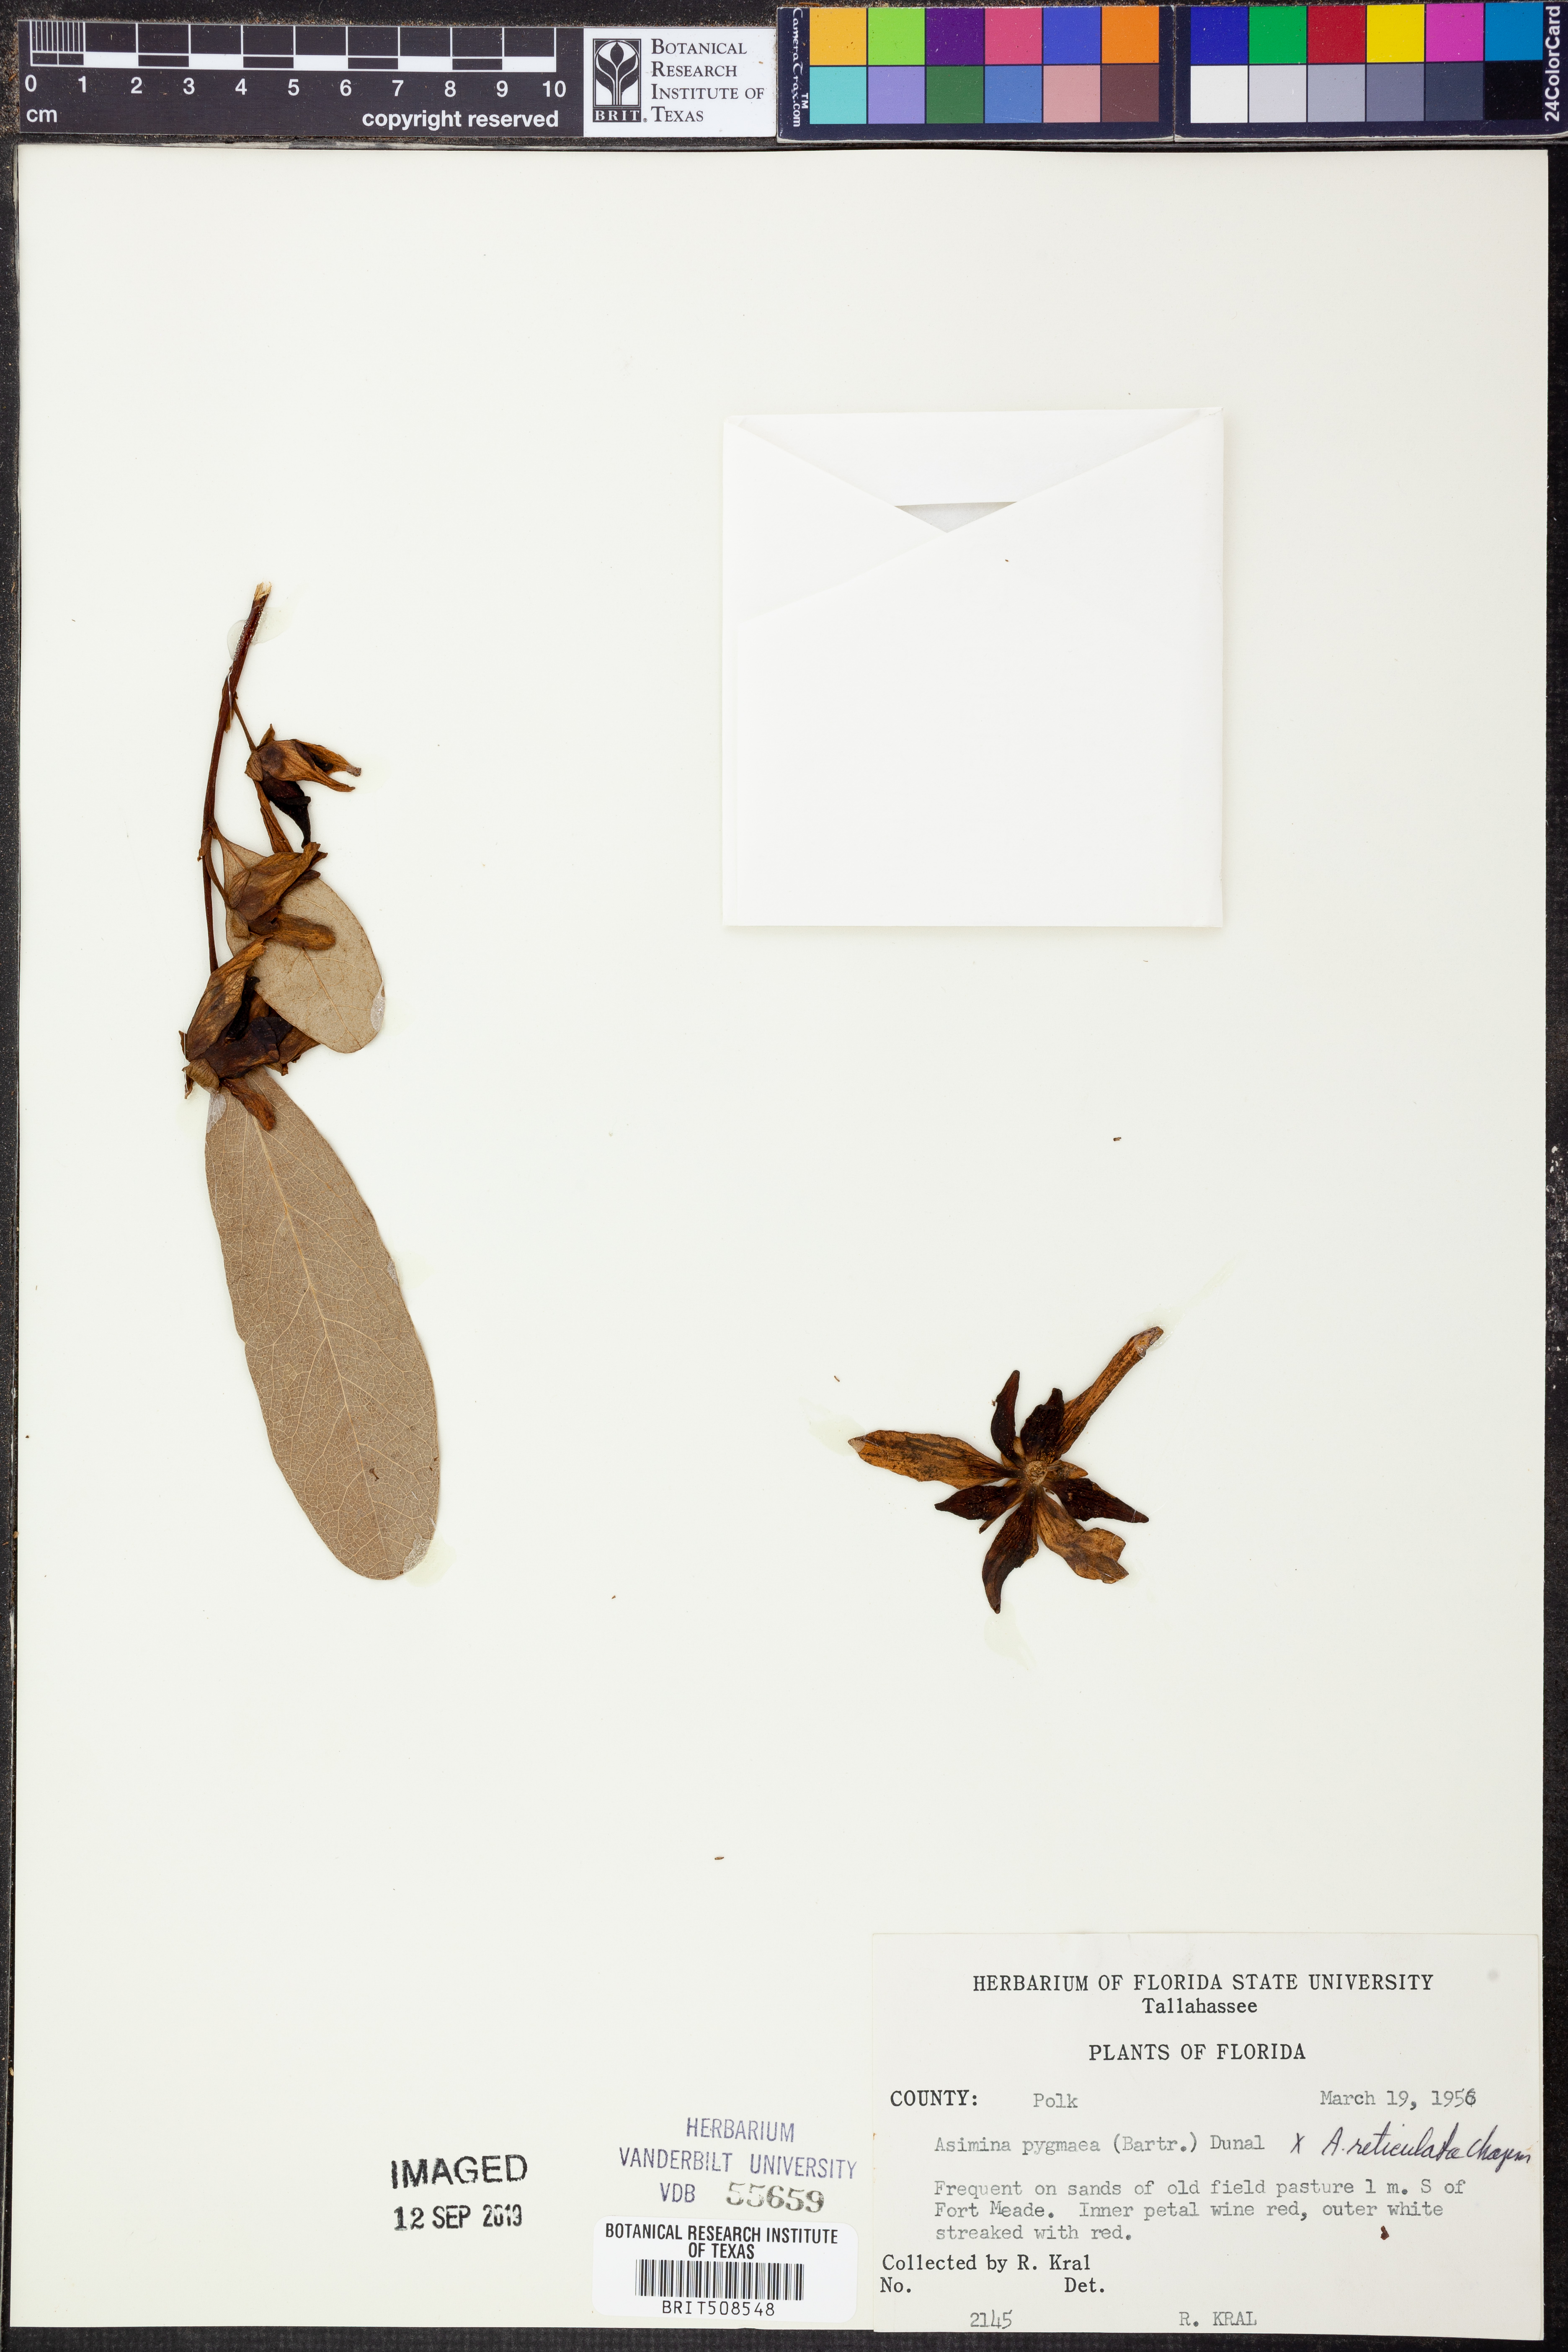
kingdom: Plantae
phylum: Tracheophyta
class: Magnoliopsida
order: Magnoliales
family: Annonaceae
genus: Asimina
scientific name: Asimina pygmaea
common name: Dwarf pawpaw
